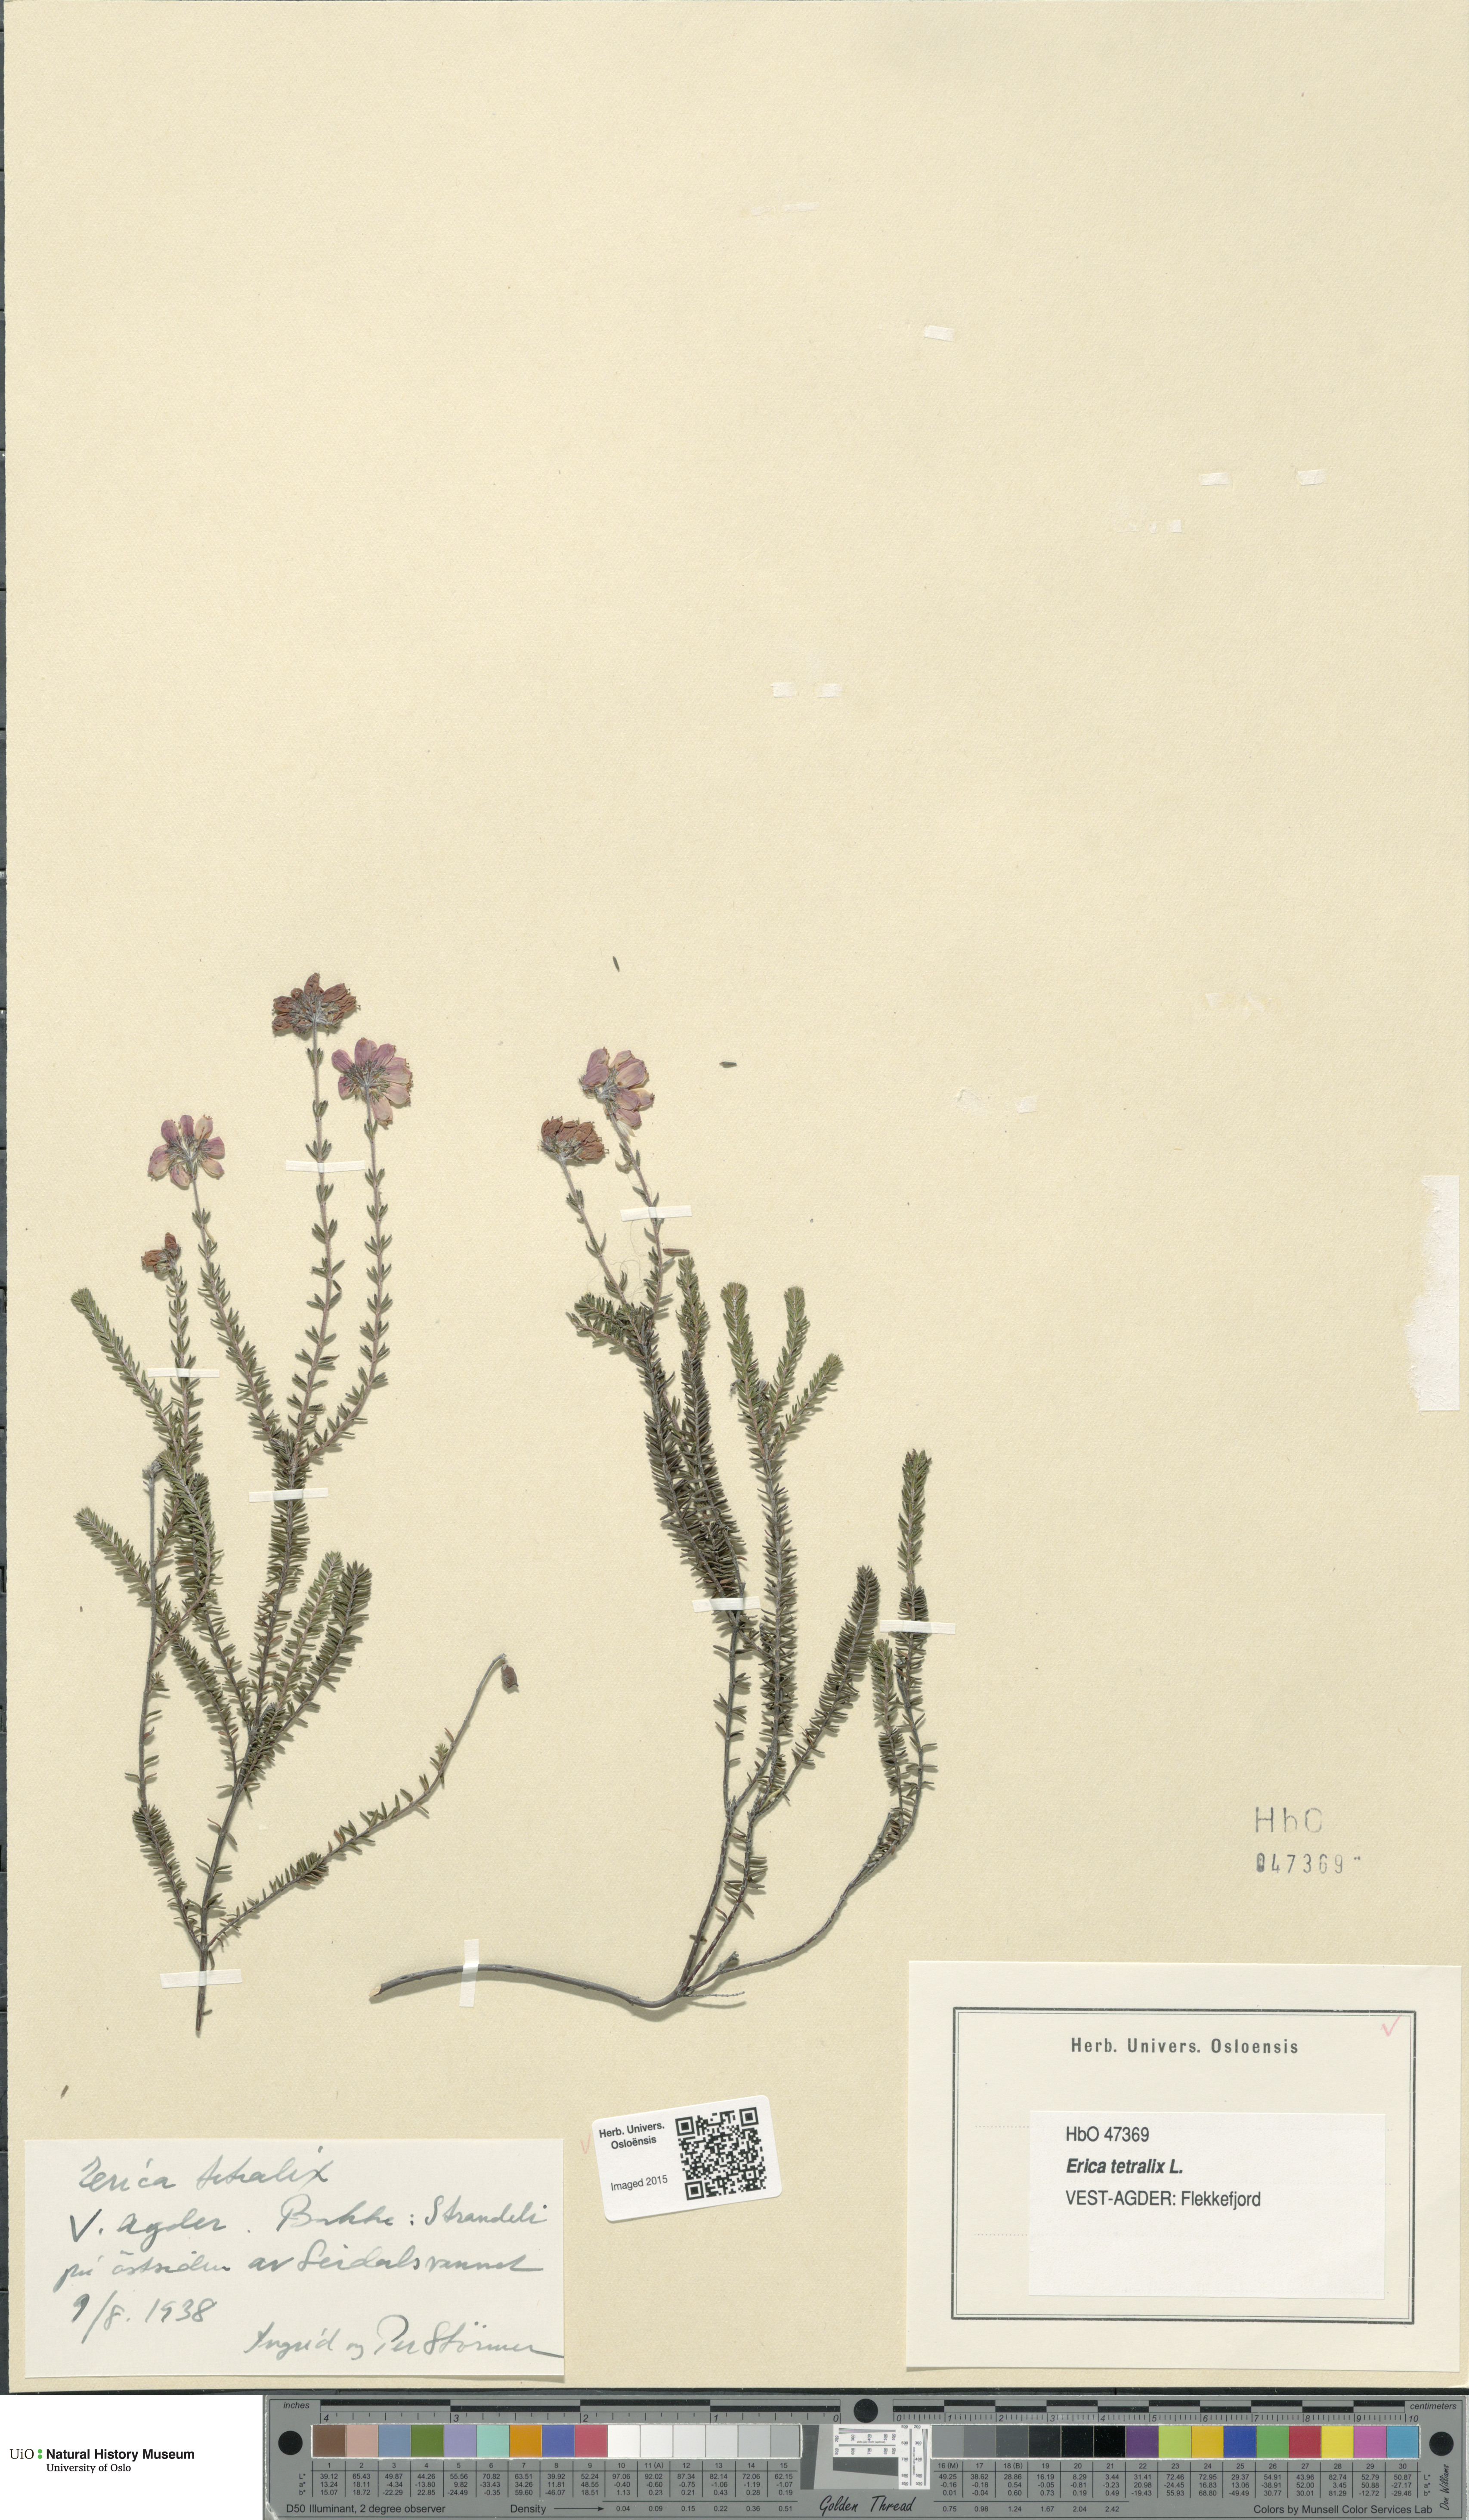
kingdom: Plantae
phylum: Tracheophyta
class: Magnoliopsida
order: Ericales
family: Ericaceae
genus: Erica
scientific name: Erica tetralix
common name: Cross-leaved heath
